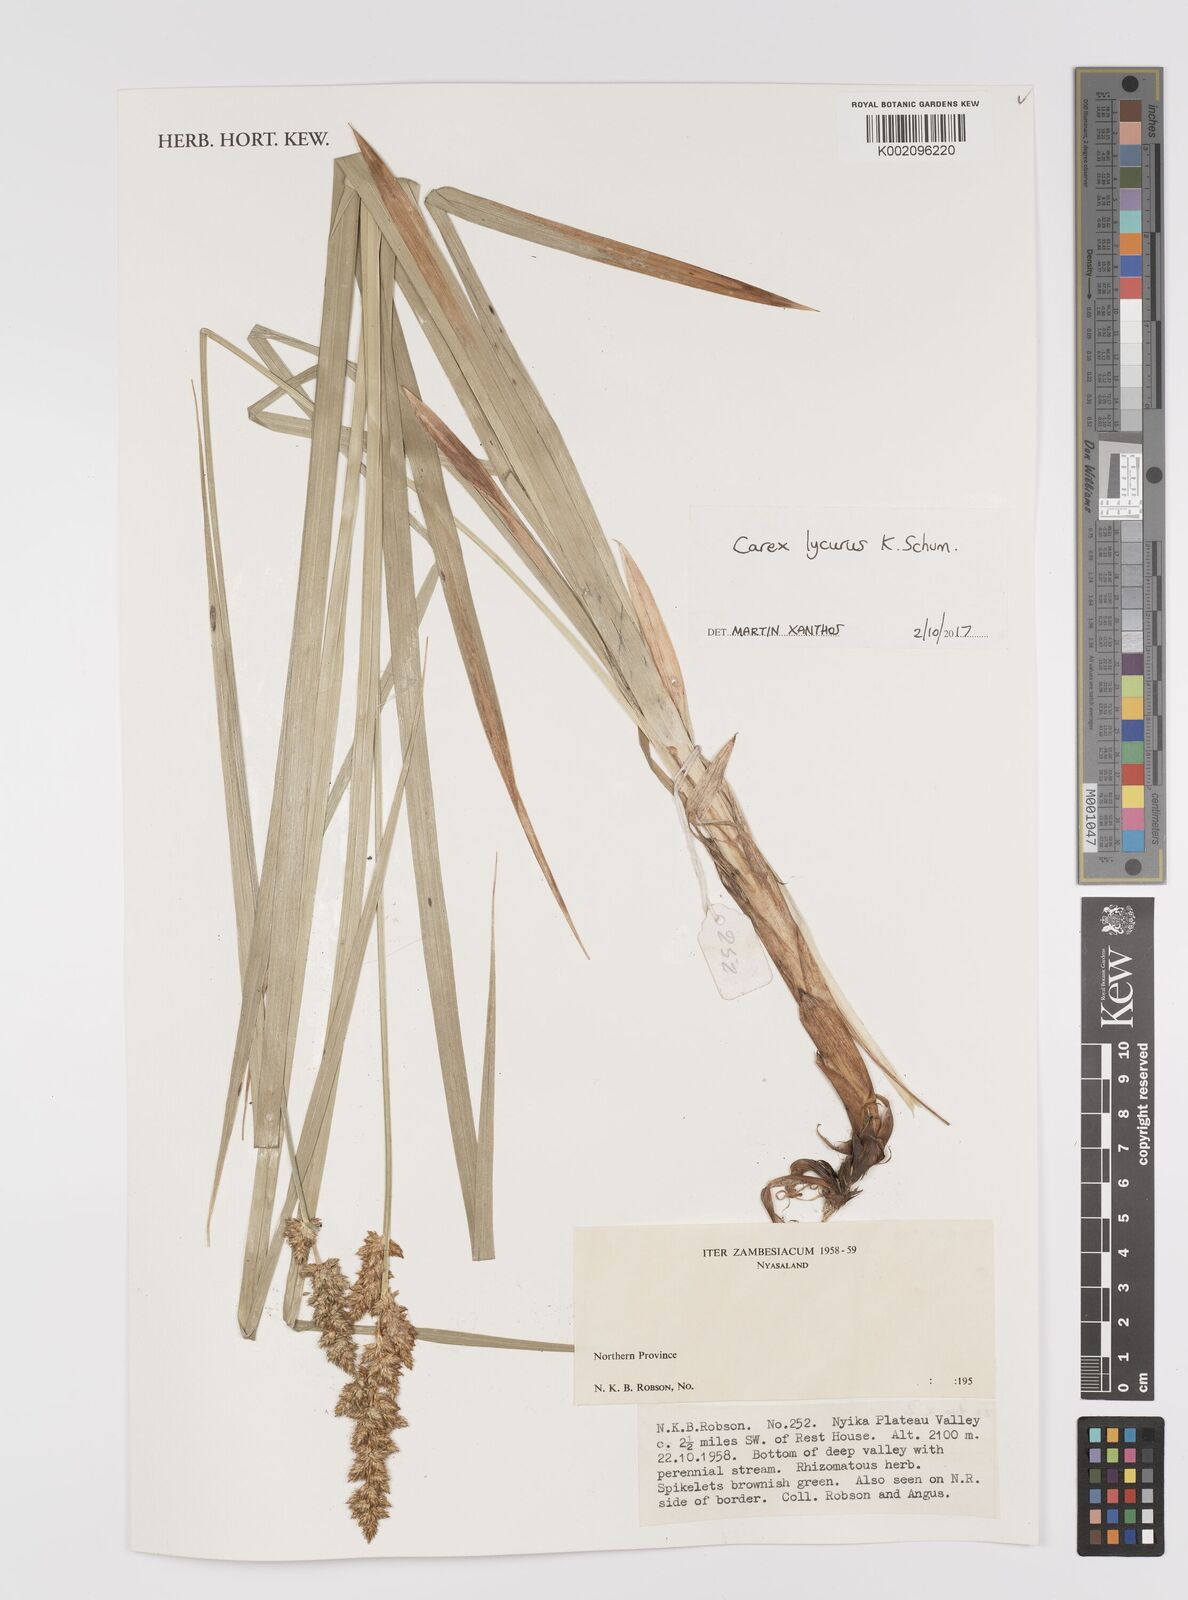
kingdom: Plantae
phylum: Tracheophyta
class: Liliopsida
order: Poales
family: Cyperaceae
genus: Carex
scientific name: Carex lycurus
